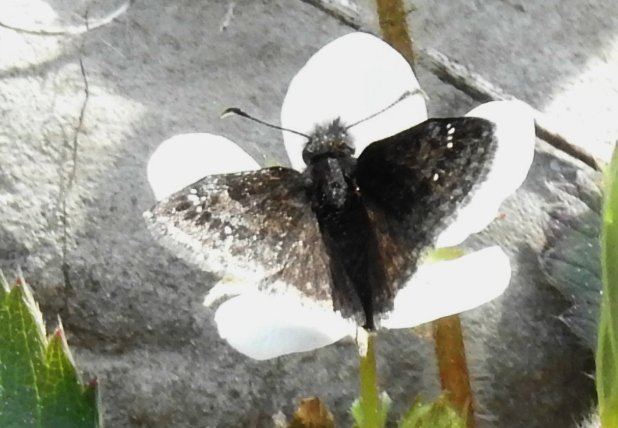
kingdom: Animalia
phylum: Arthropoda
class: Insecta
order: Lepidoptera
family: Hesperiidae
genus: Erynnis
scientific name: Erynnis
